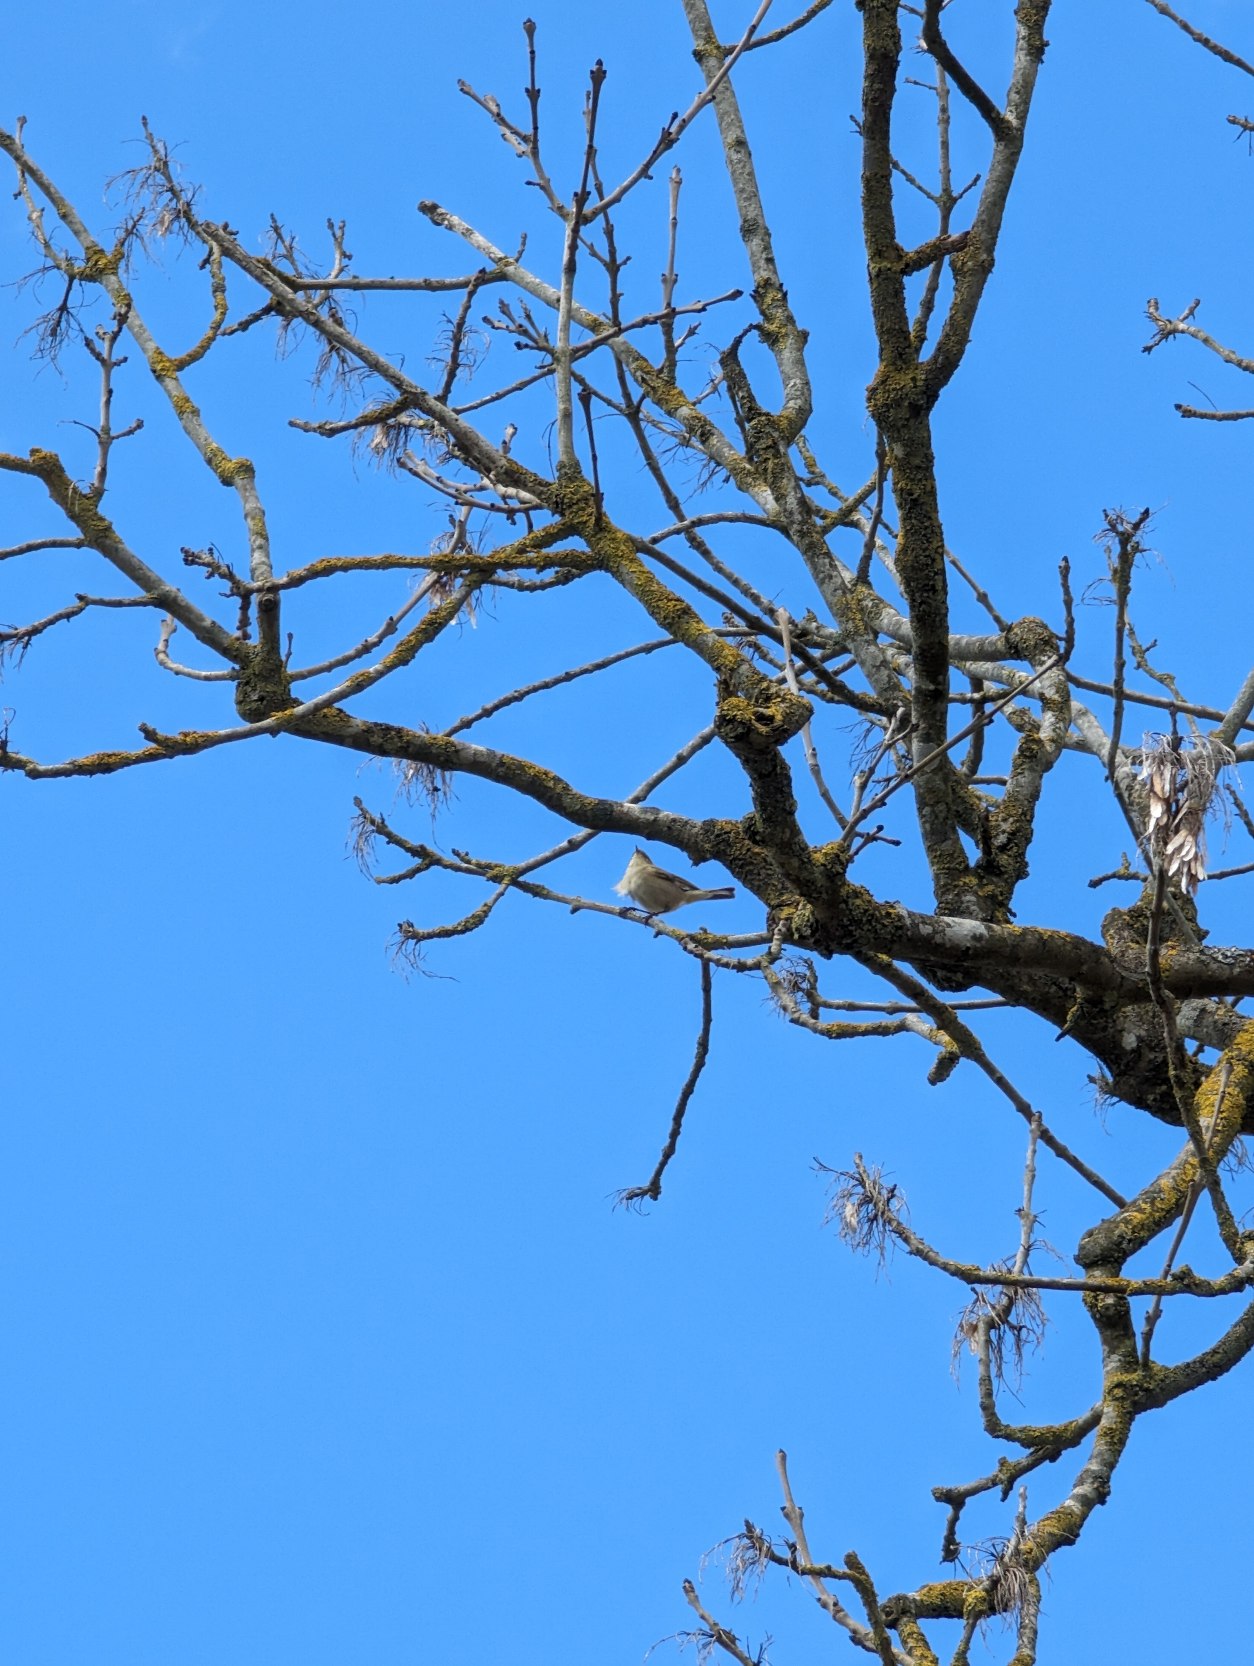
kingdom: Animalia
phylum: Chordata
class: Aves
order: Passeriformes
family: Phylloscopidae
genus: Phylloscopus
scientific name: Phylloscopus collybita
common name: Gransanger
